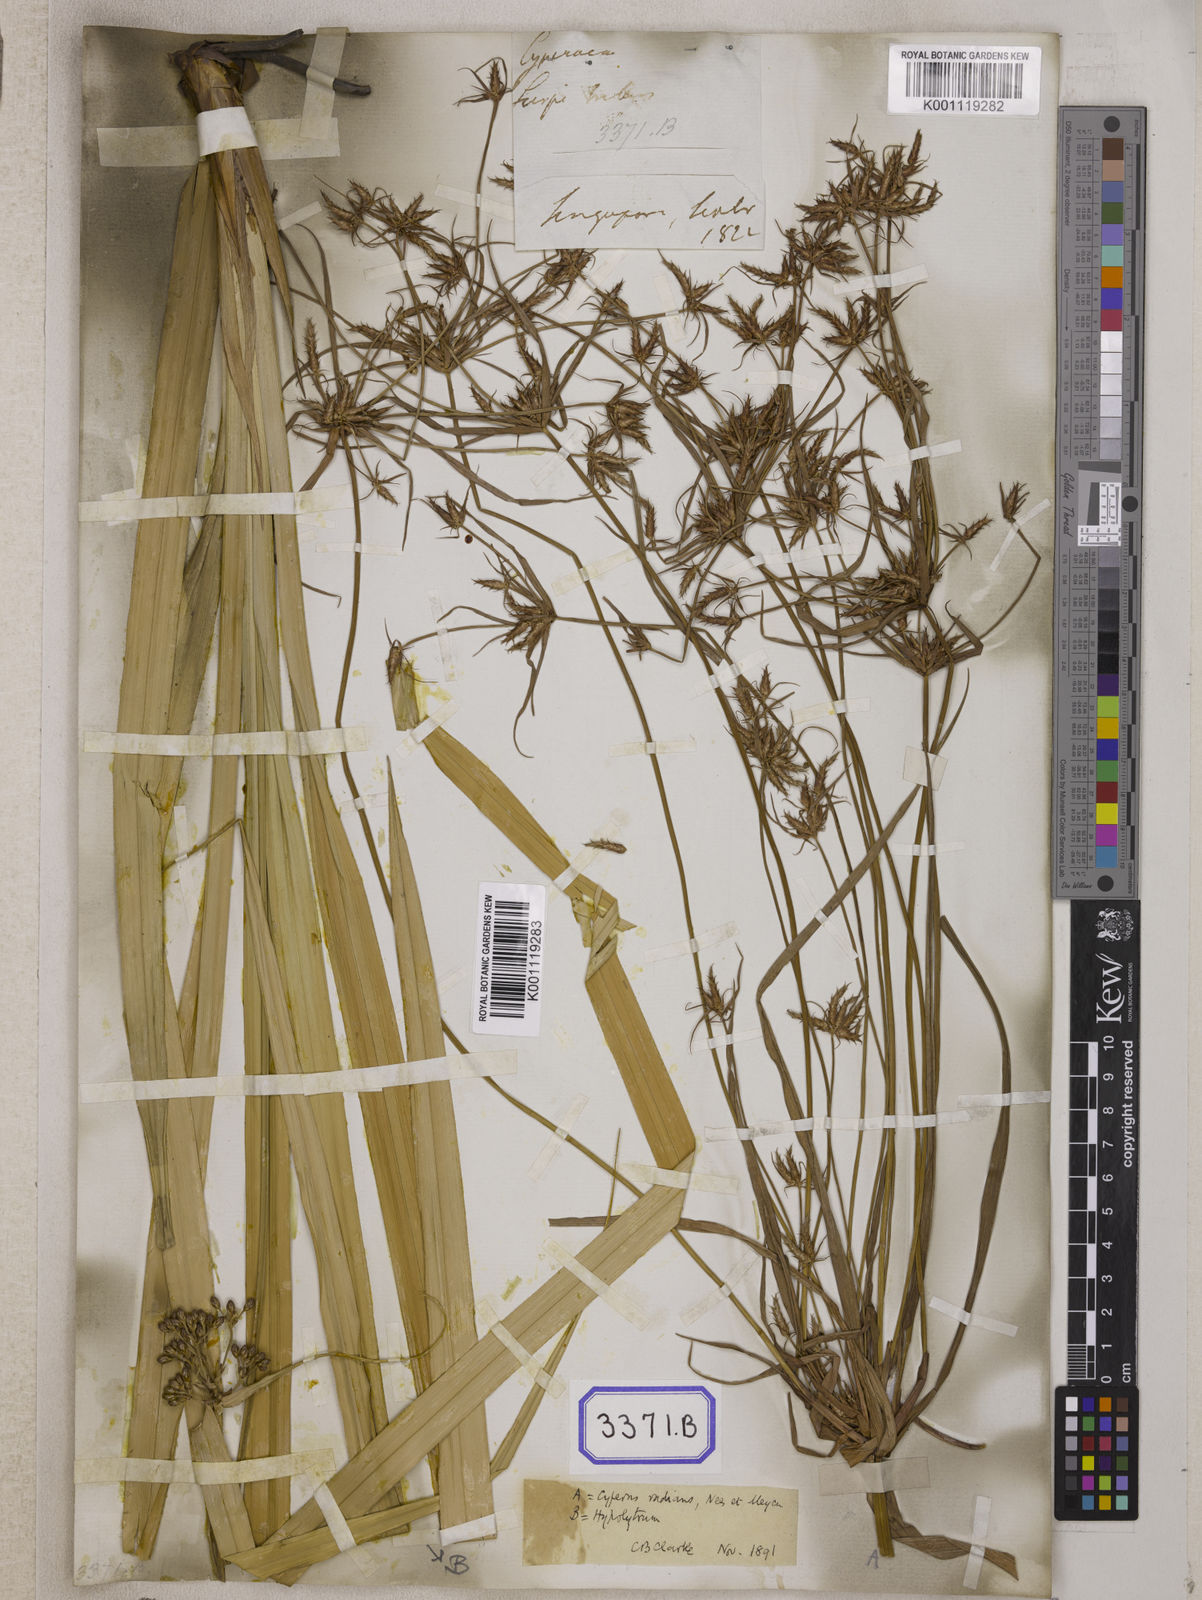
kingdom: Plantae
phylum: Tracheophyta
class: Liliopsida
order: Poales
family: Cyperaceae
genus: Cyperus
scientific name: Cyperus
